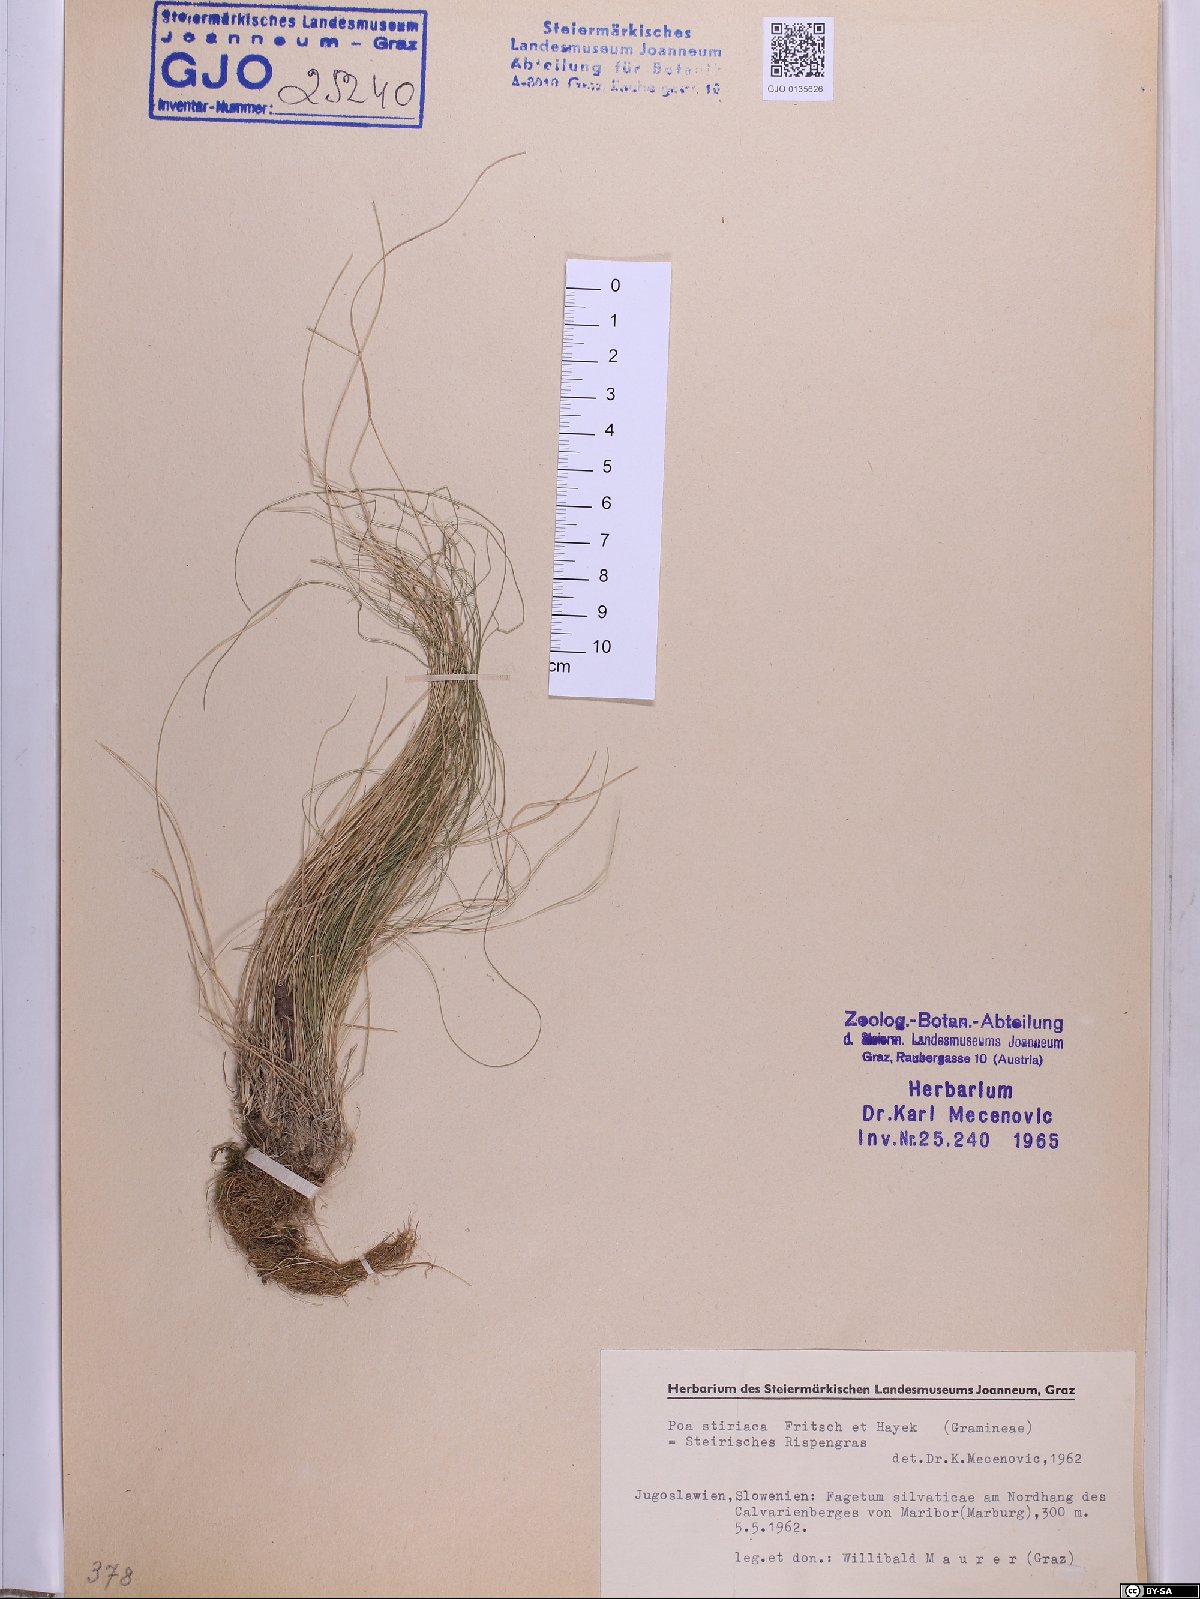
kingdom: Plantae
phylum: Tracheophyta
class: Liliopsida
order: Poales
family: Poaceae
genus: Poa
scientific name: Poa stiriaca
